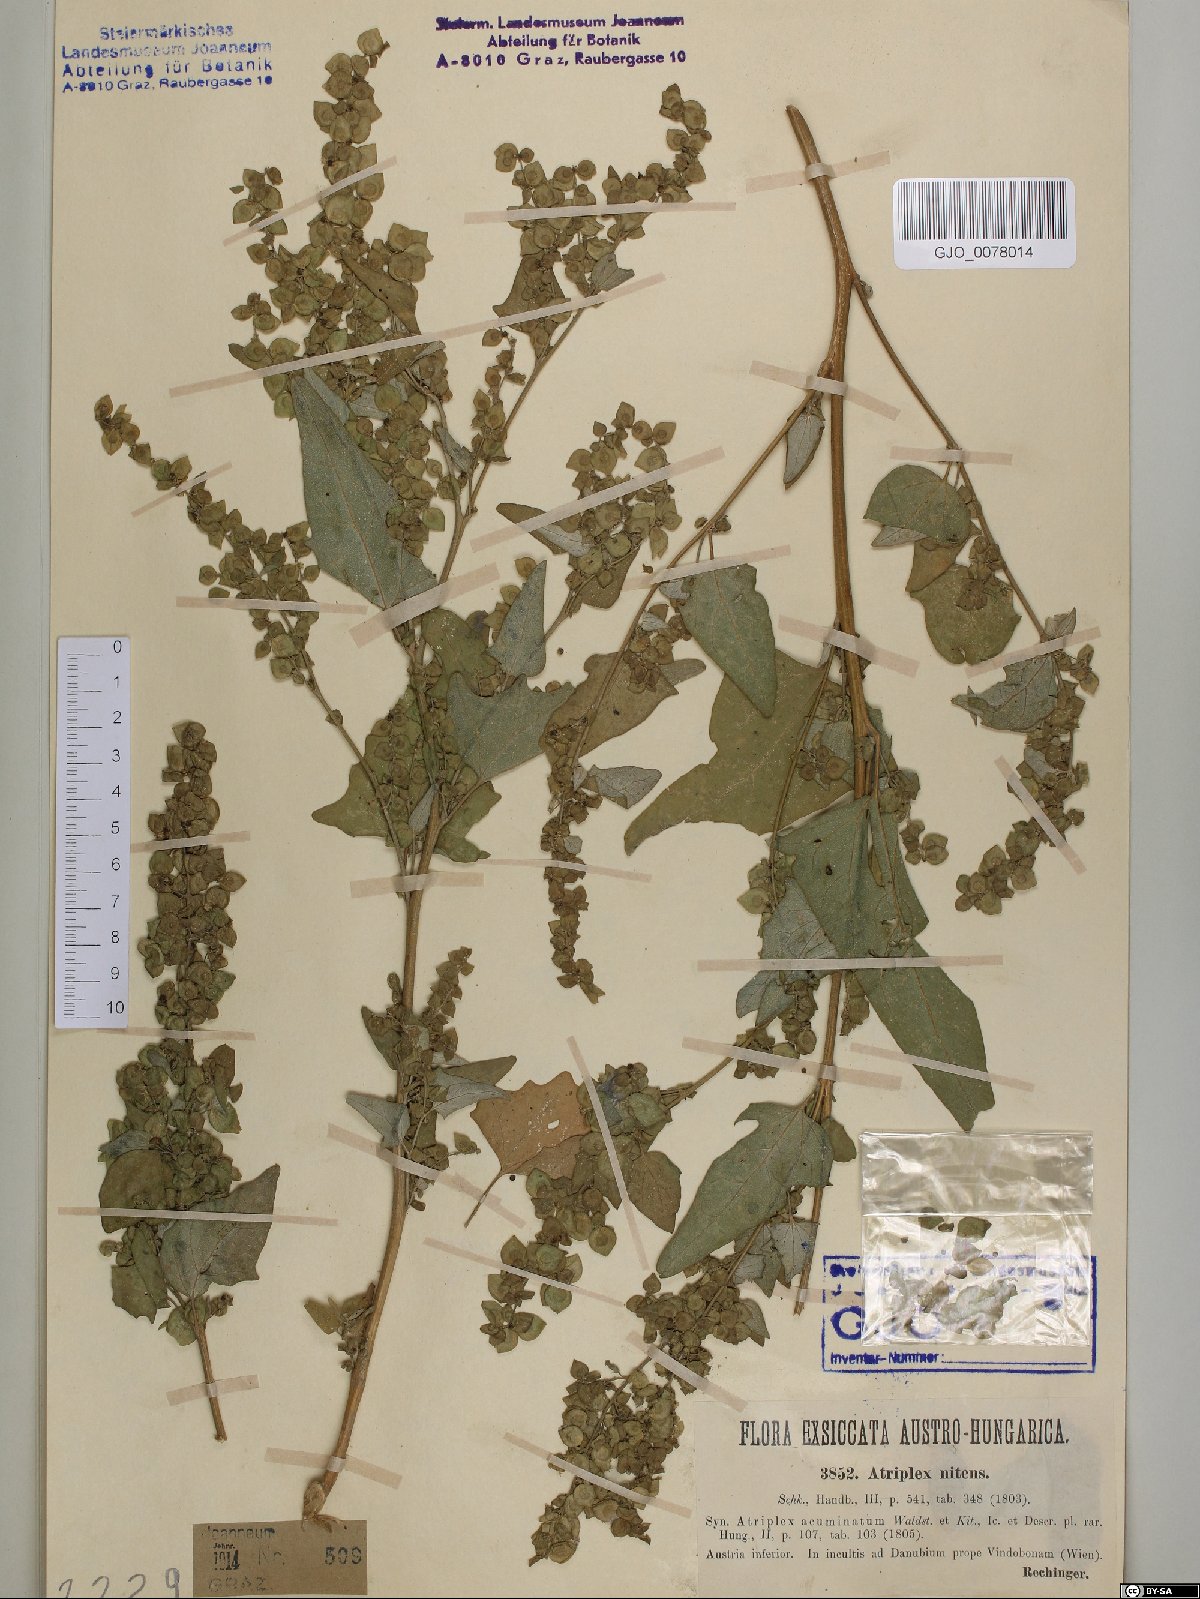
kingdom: Plantae
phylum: Tracheophyta
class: Magnoliopsida
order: Caryophyllales
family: Amaranthaceae
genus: Atriplex
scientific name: Atriplex sagittata
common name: Purple orache
